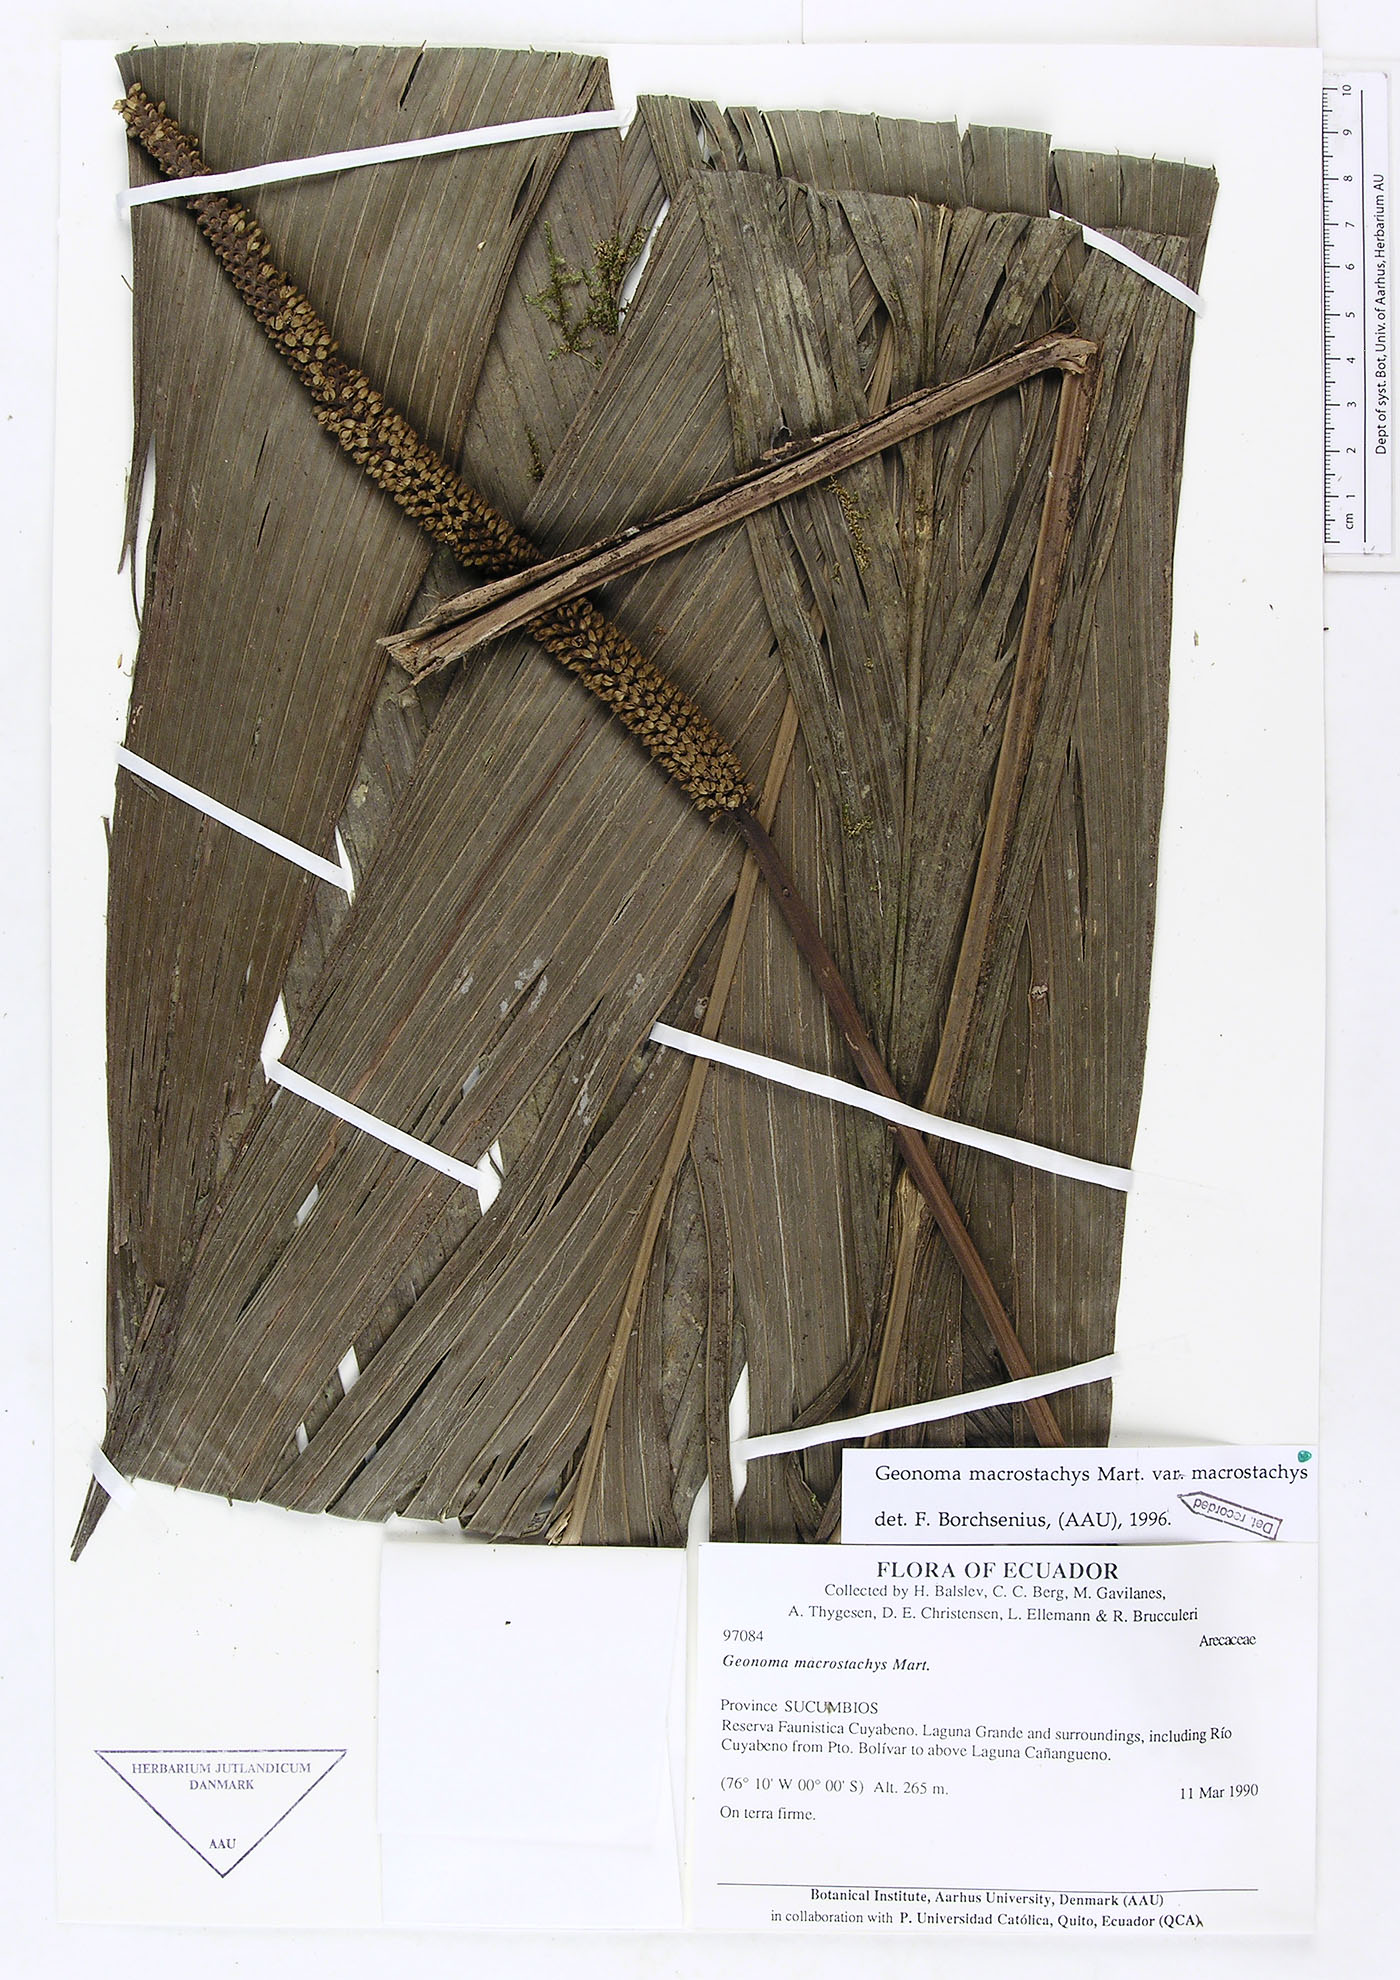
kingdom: Plantae
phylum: Tracheophyta
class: Liliopsida
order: Arecales
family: Arecaceae
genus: Geonoma
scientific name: Geonoma macrostachys
